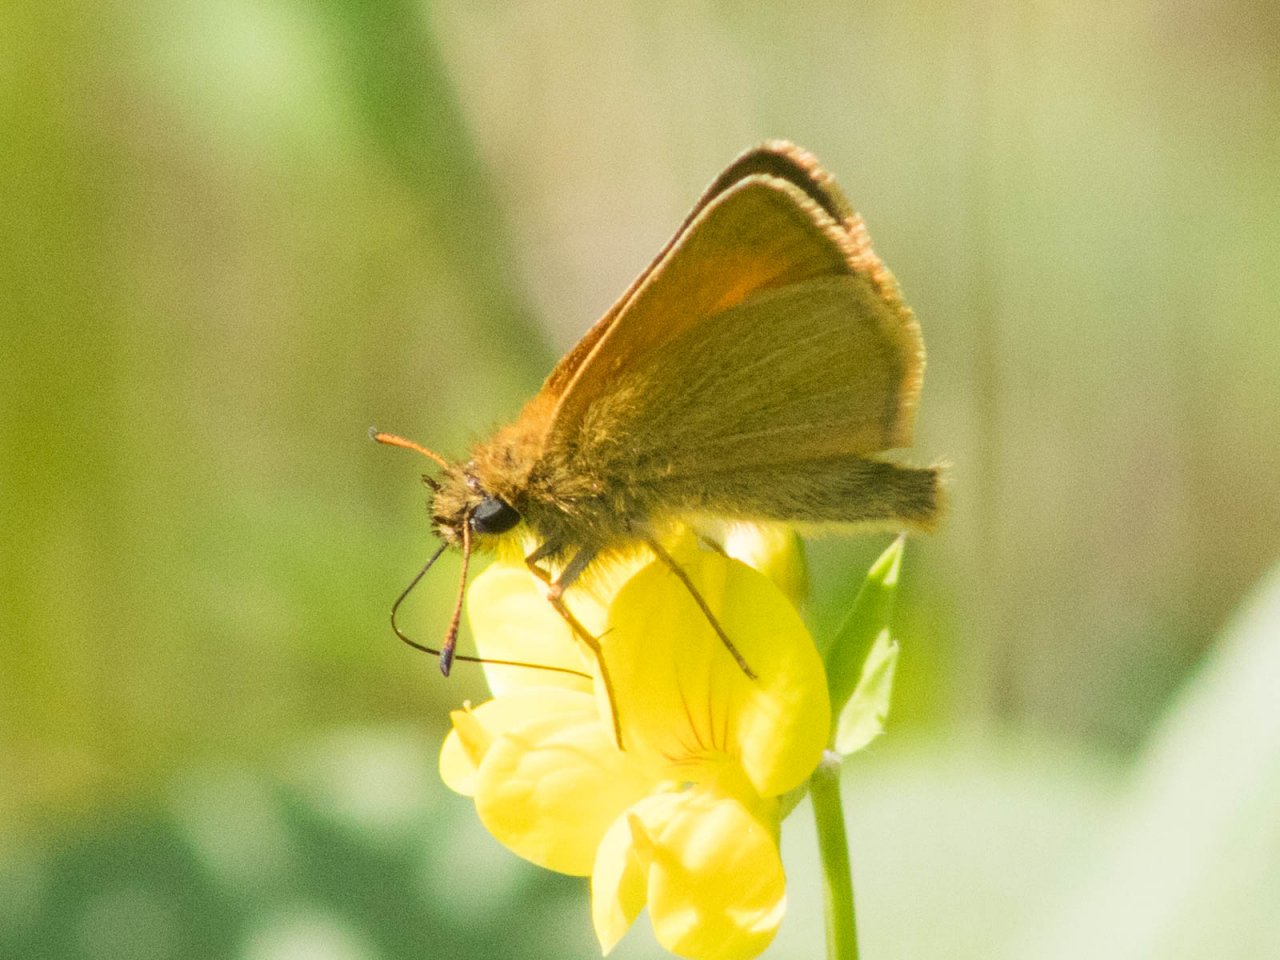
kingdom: Animalia
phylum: Arthropoda
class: Insecta
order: Lepidoptera
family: Hesperiidae
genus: Thymelicus
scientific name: Thymelicus lineola
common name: European Skipper
